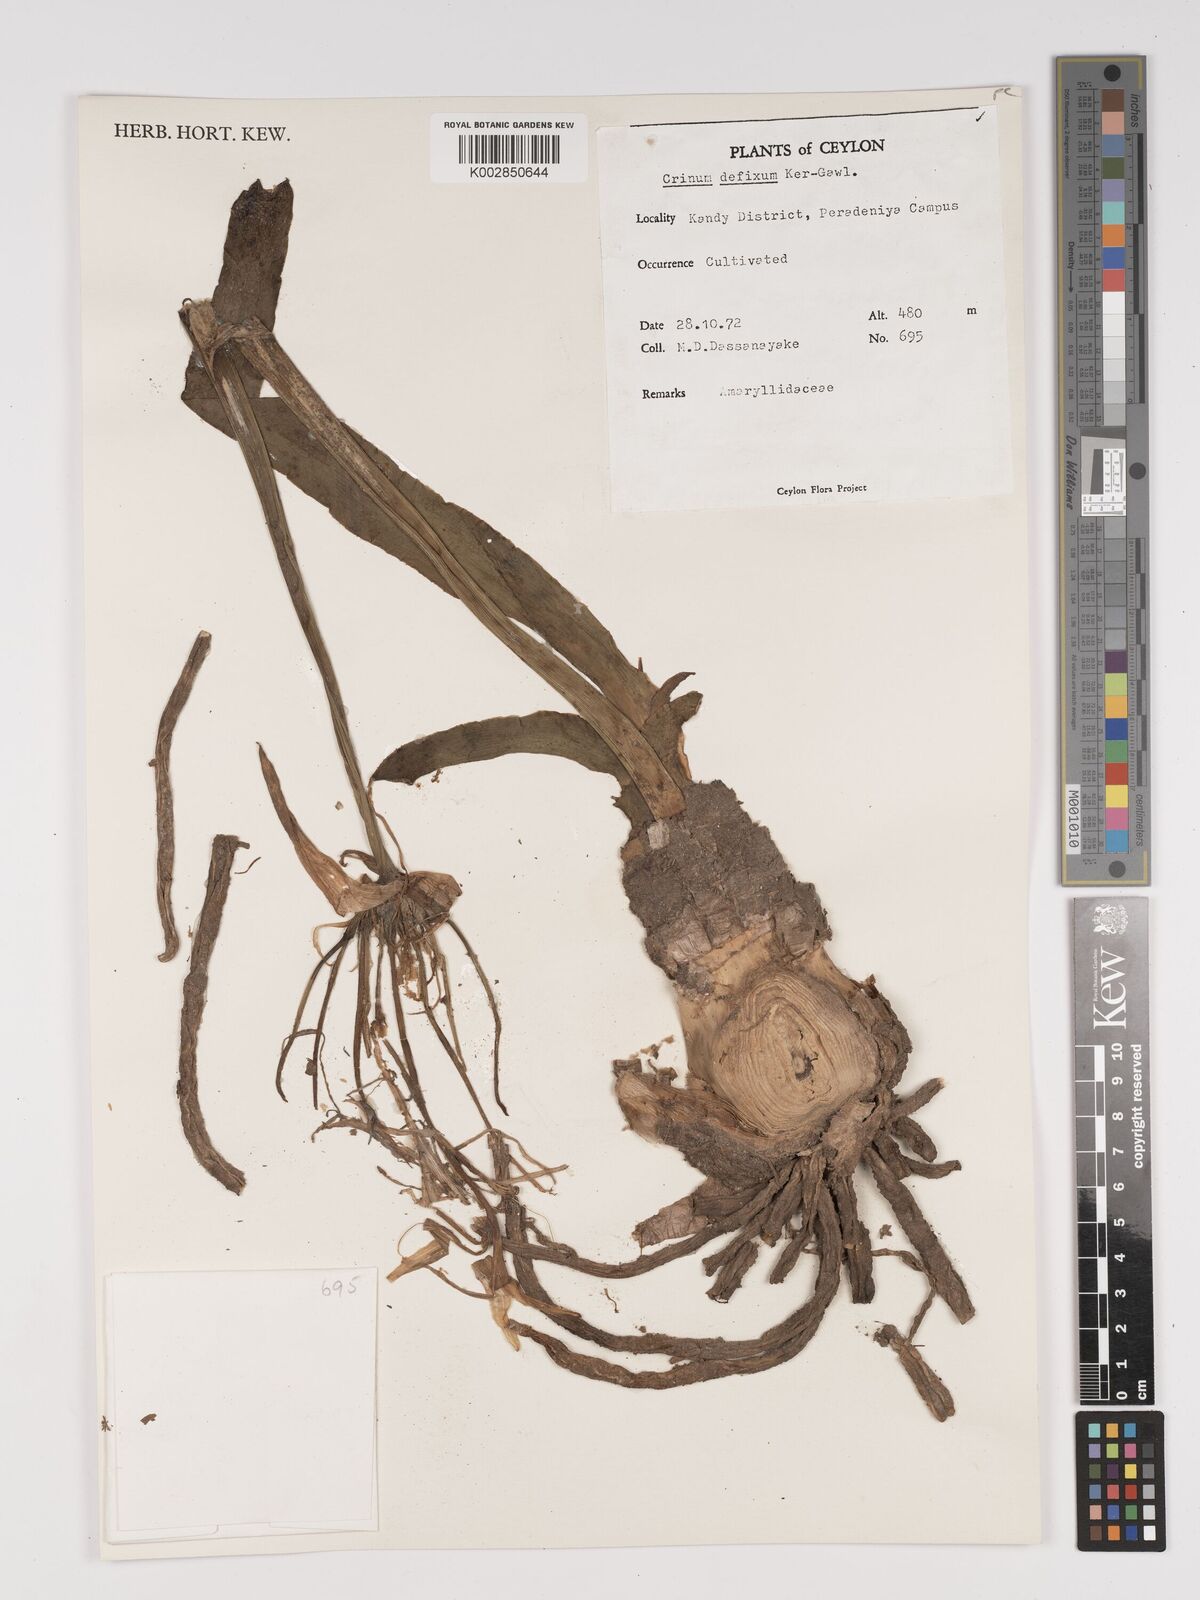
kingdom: Plantae
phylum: Tracheophyta
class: Liliopsida
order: Asparagales
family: Amaryllidaceae
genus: Crinum
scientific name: Crinum defixum
